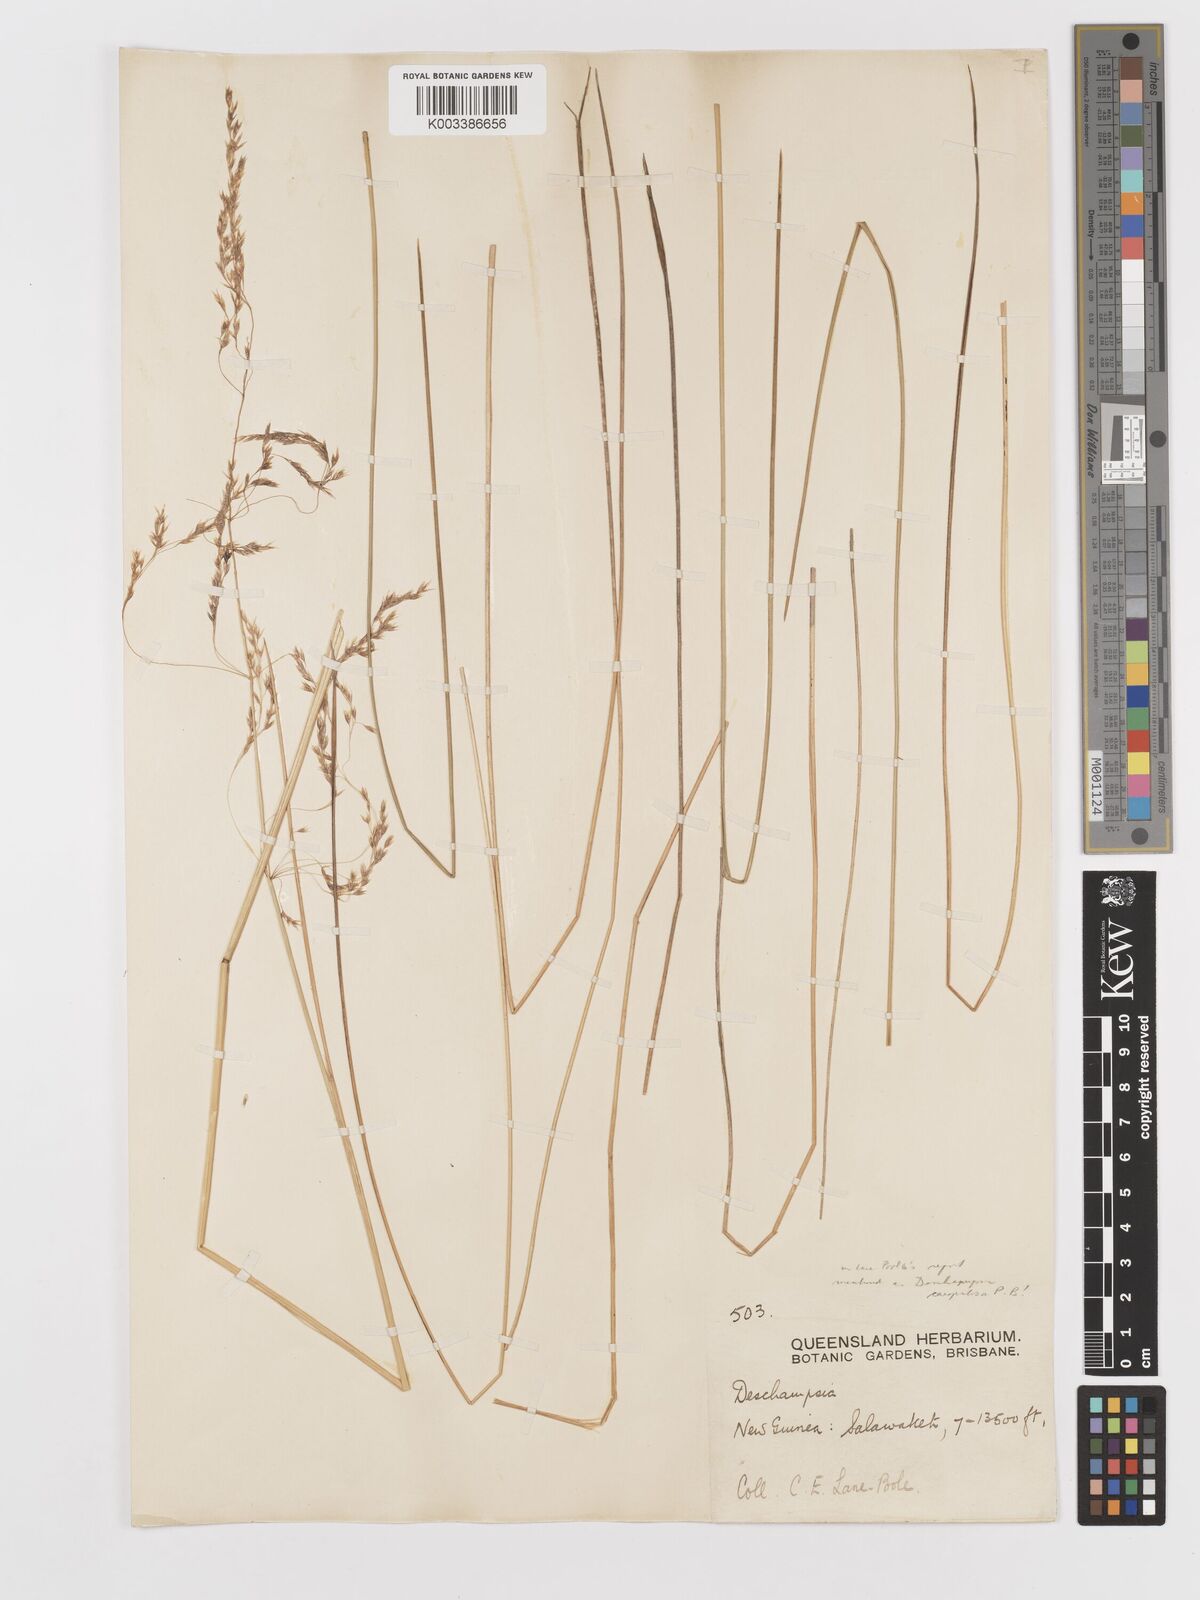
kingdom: Plantae
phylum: Tracheophyta
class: Liliopsida
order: Poales
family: Poaceae
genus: Deschampsia
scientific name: Deschampsia klossii
